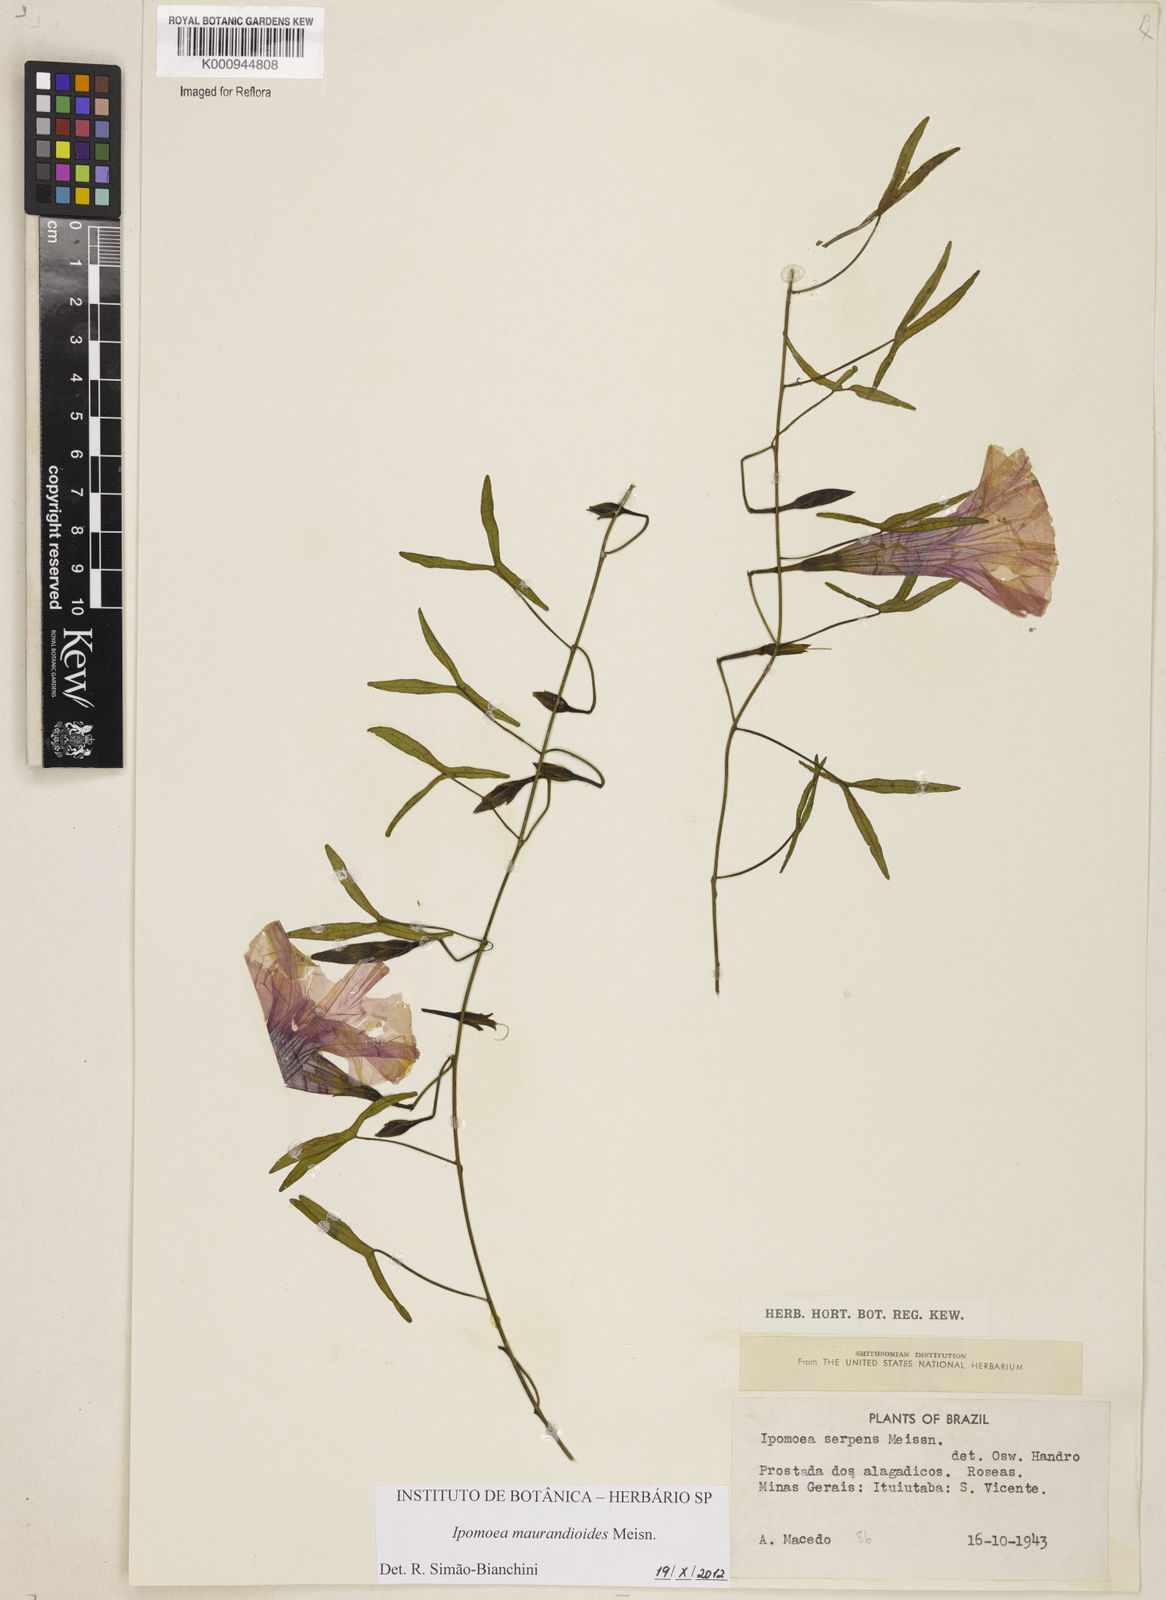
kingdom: Plantae
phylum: Tracheophyta
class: Magnoliopsida
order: Solanales
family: Convolvulaceae
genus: Ipomoea
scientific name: Ipomoea aequiloba
